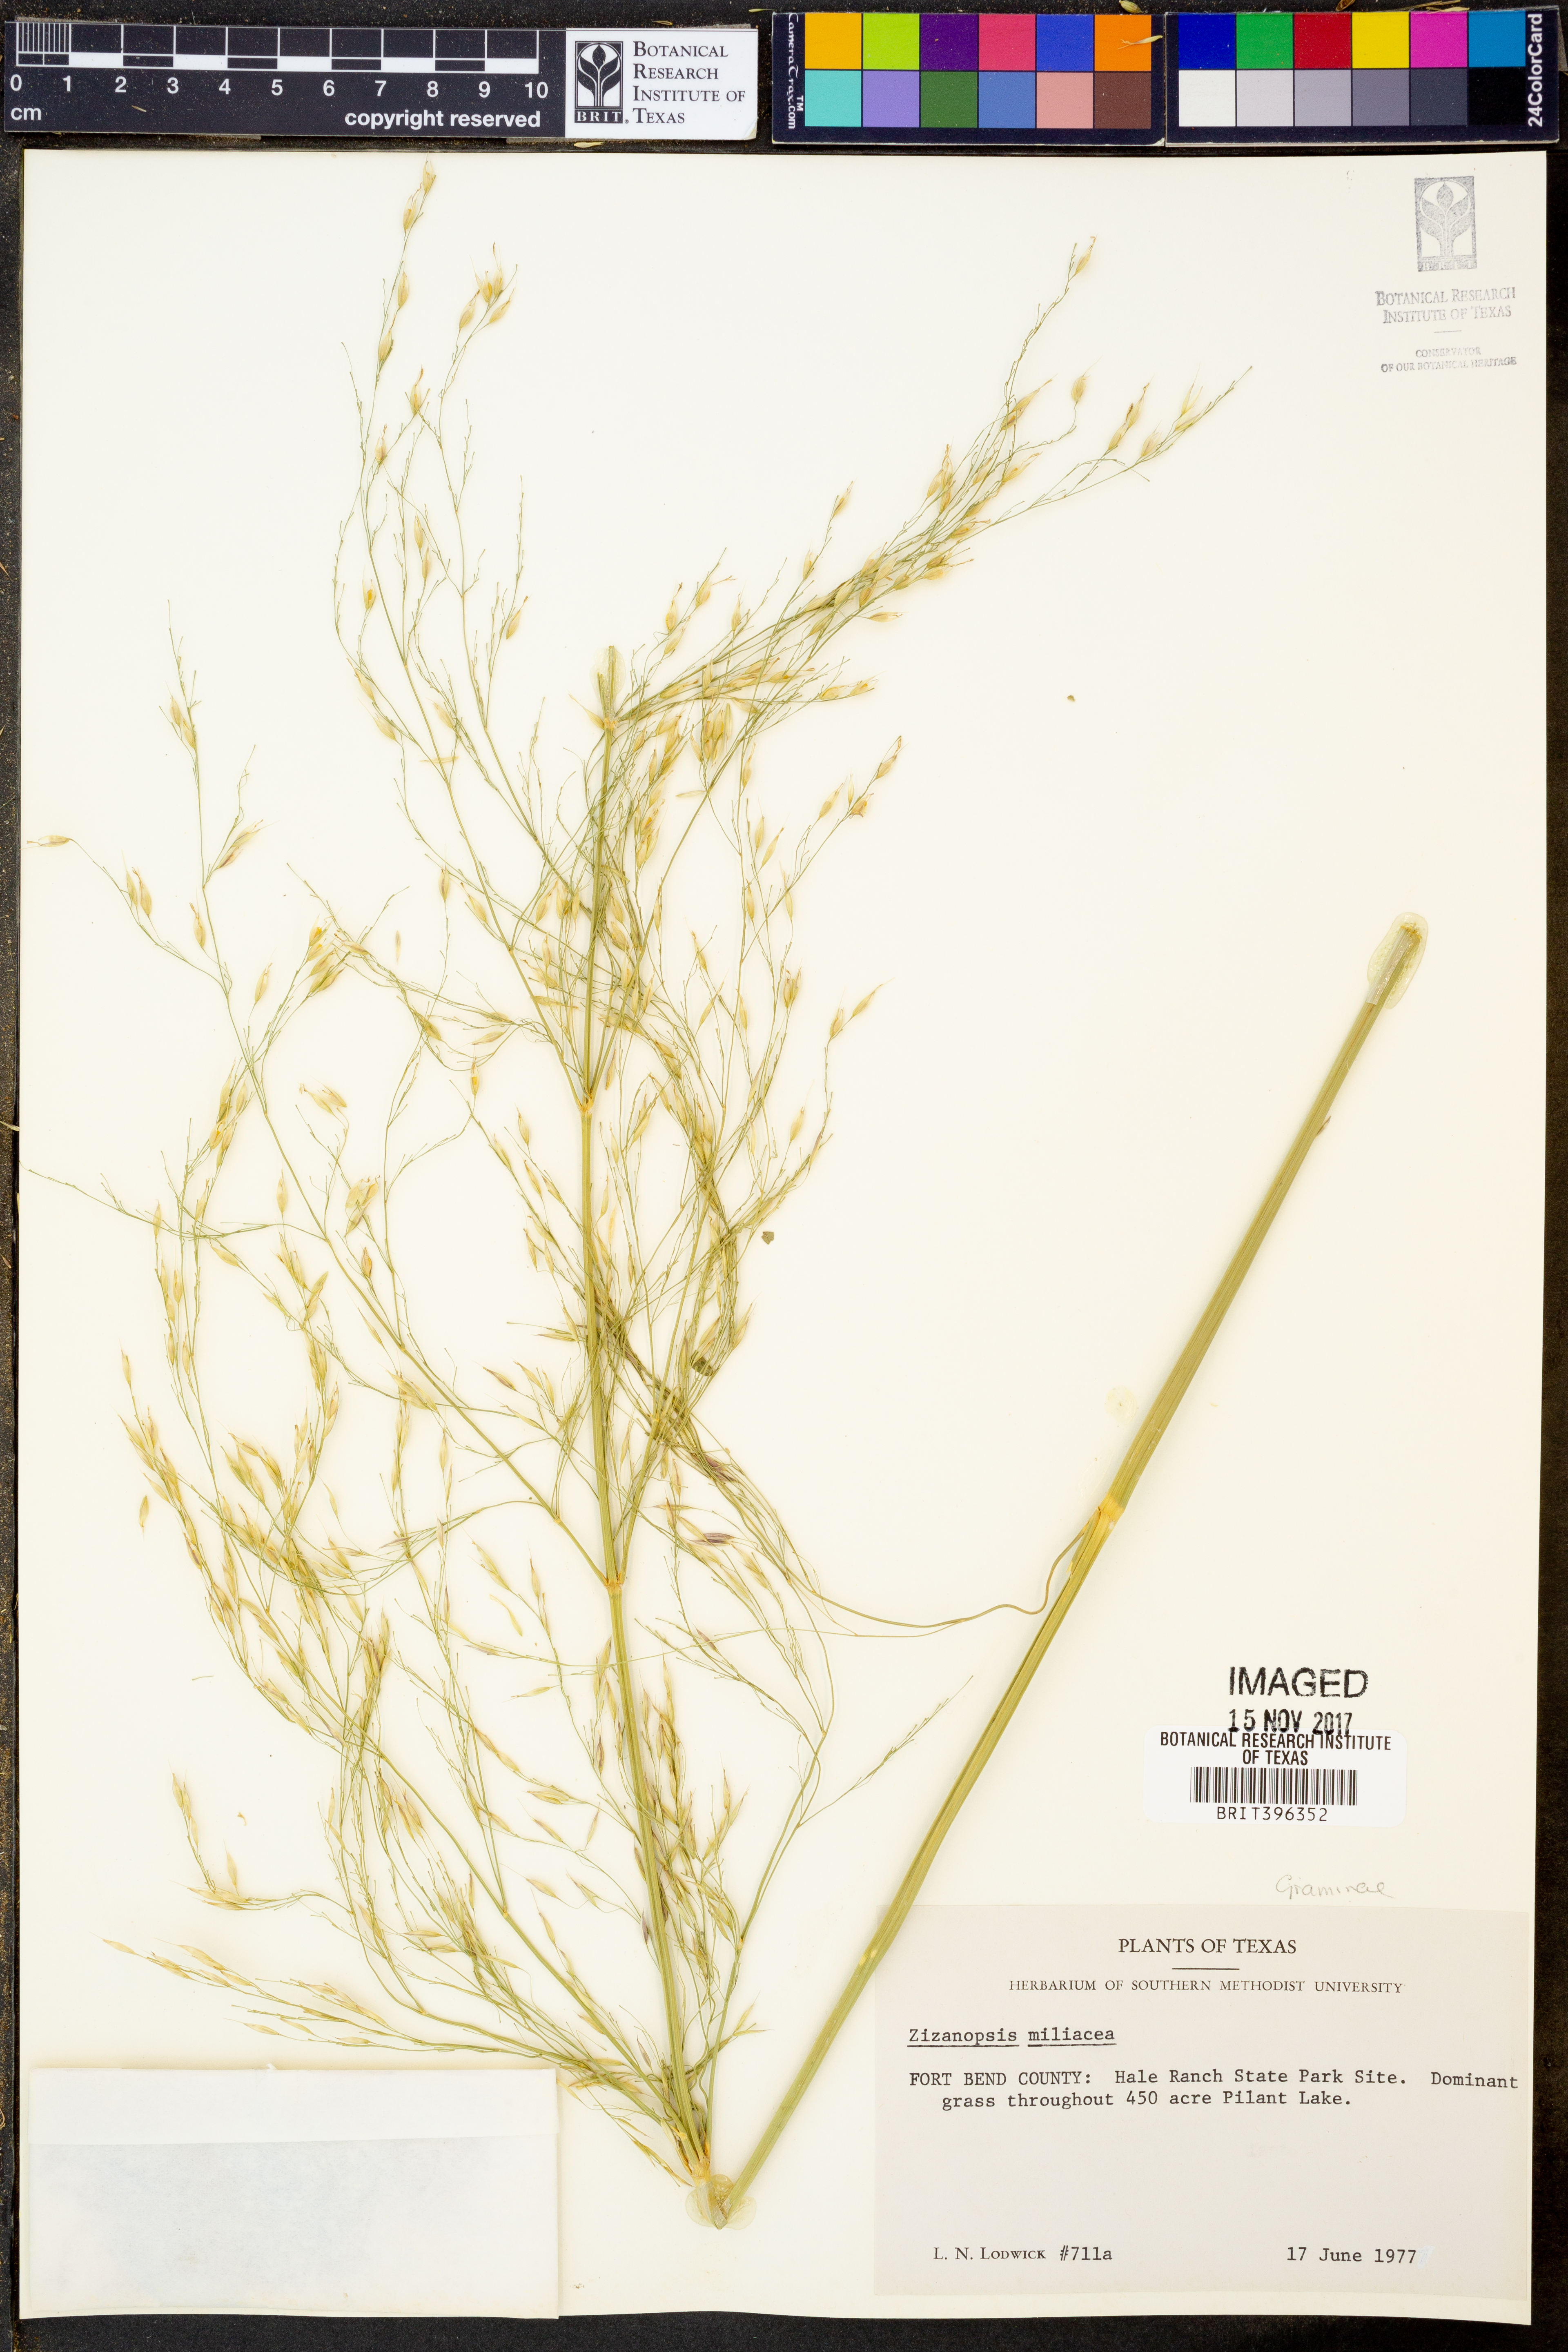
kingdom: Plantae
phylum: Tracheophyta
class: Liliopsida
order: Poales
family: Poaceae
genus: Zizaniopsis
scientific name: Zizaniopsis miliacea
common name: Giant-cutgrass
